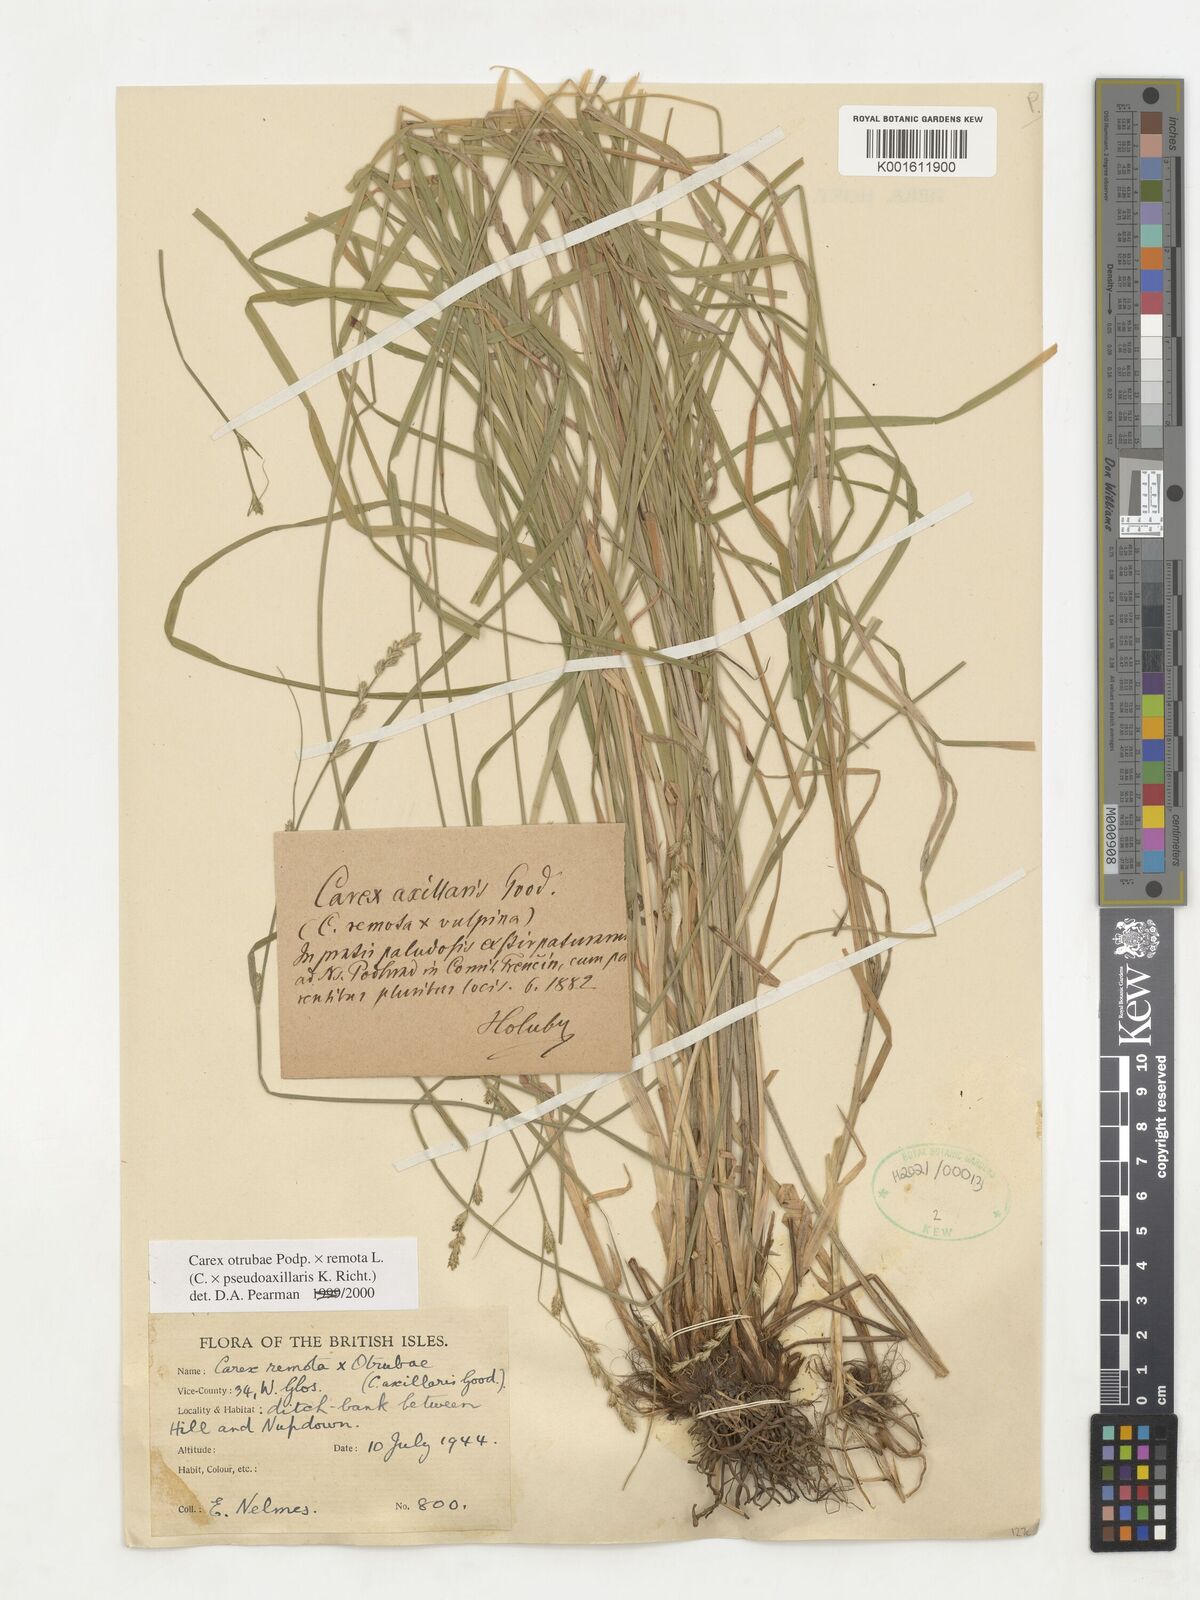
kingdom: Plantae
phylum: Tracheophyta
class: Liliopsida
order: Poales
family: Cyperaceae
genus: Carex
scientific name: Carex pseudoaxillaris
